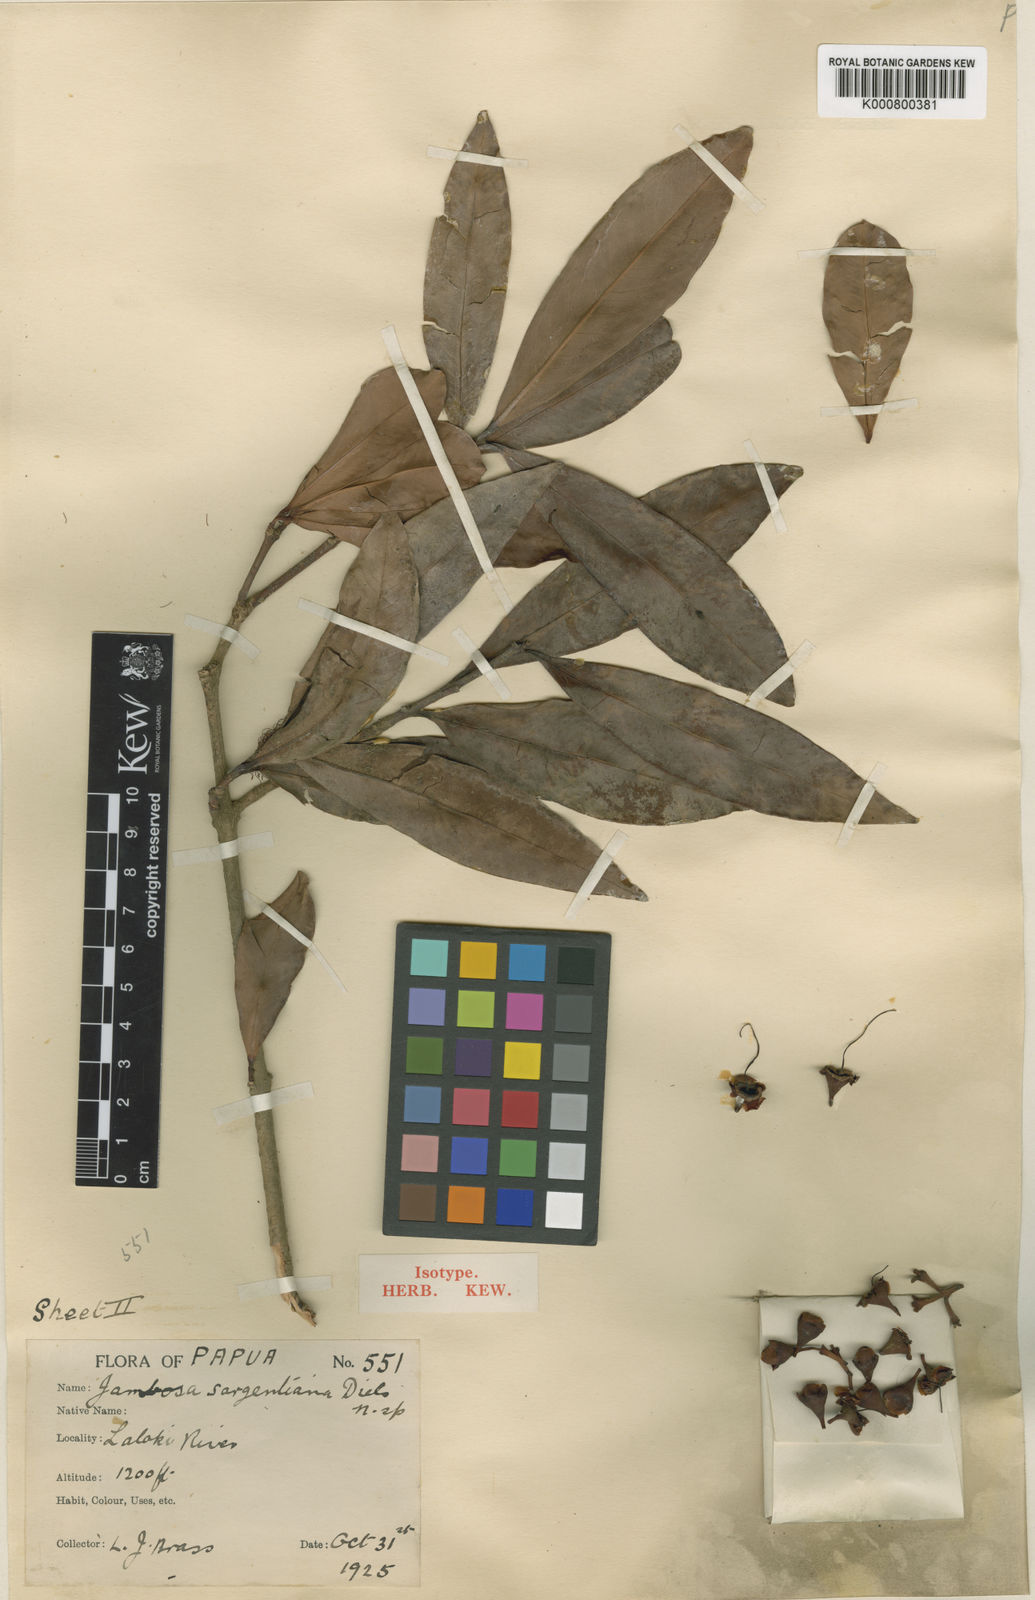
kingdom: Plantae
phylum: Tracheophyta
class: Magnoliopsida
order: Myrtales
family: Myrtaceae
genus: Syzygium
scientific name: Syzygium coalitum
